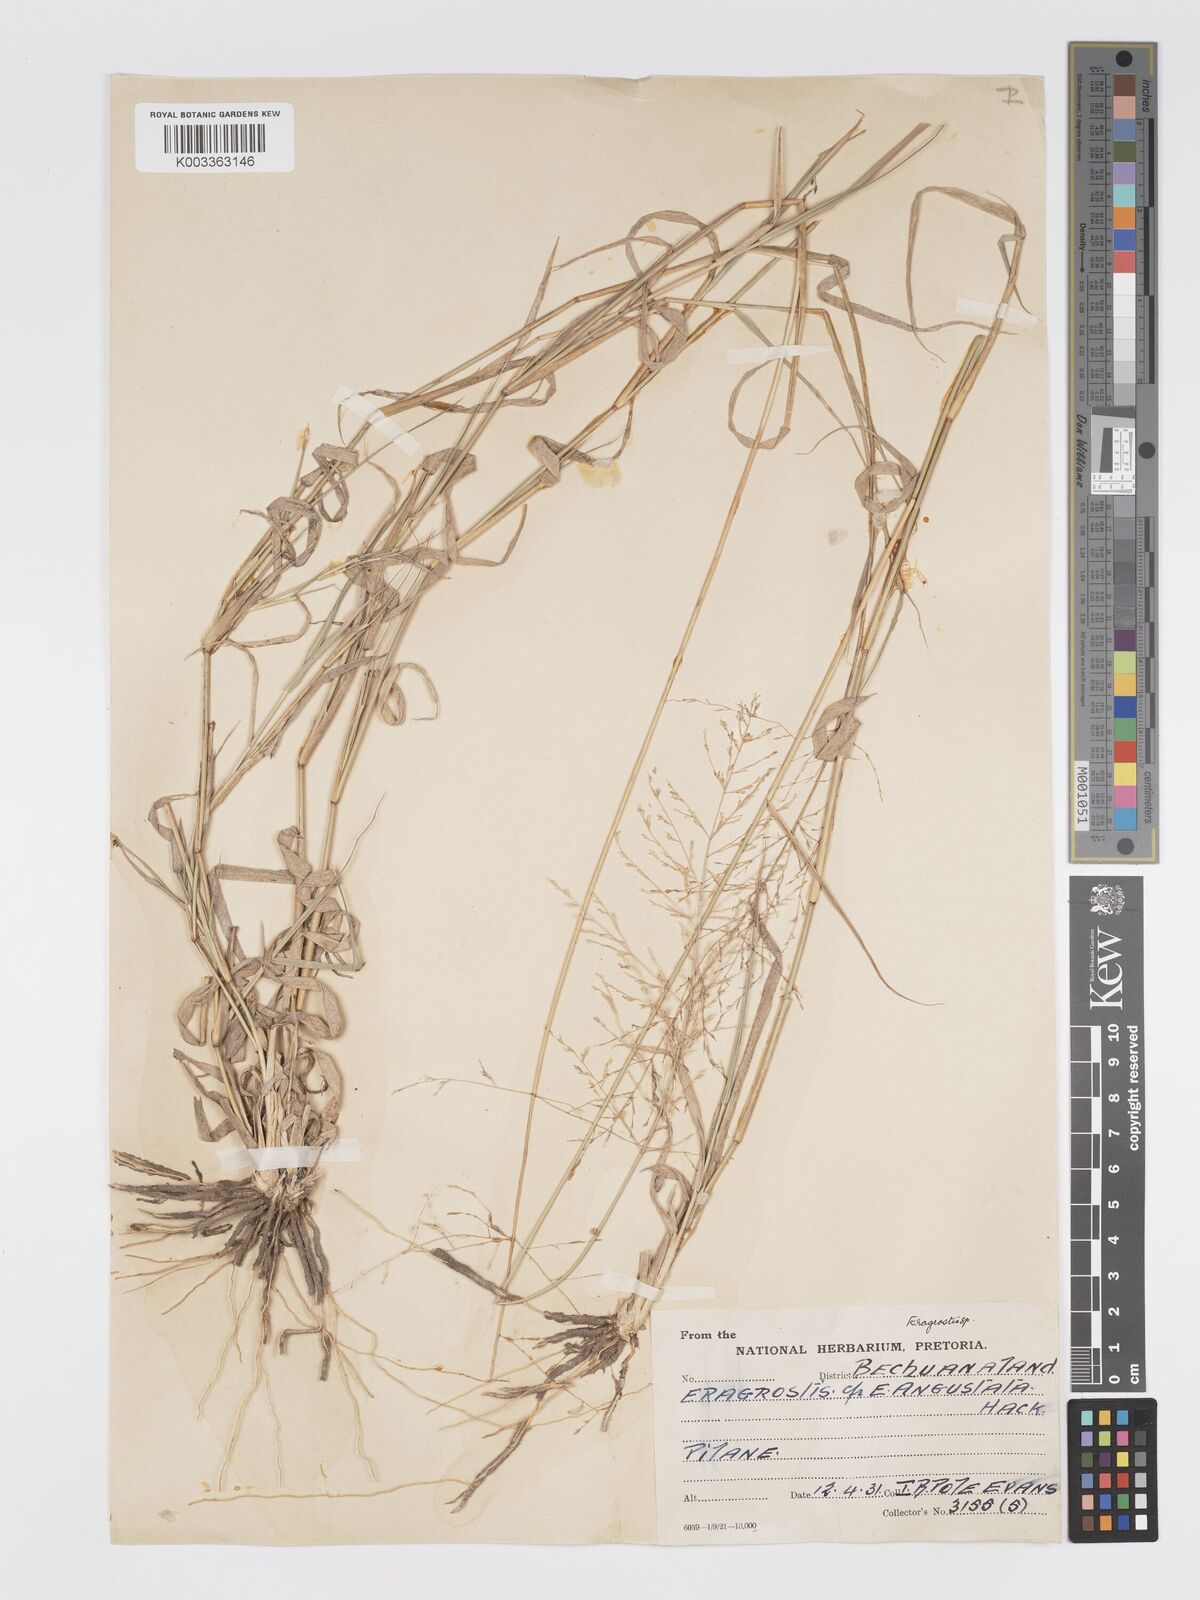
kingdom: Plantae
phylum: Tracheophyta
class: Liliopsida
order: Poales
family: Poaceae
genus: Eragrostis
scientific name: Eragrostis cylindriflora
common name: Cylinderflower lovegrass
